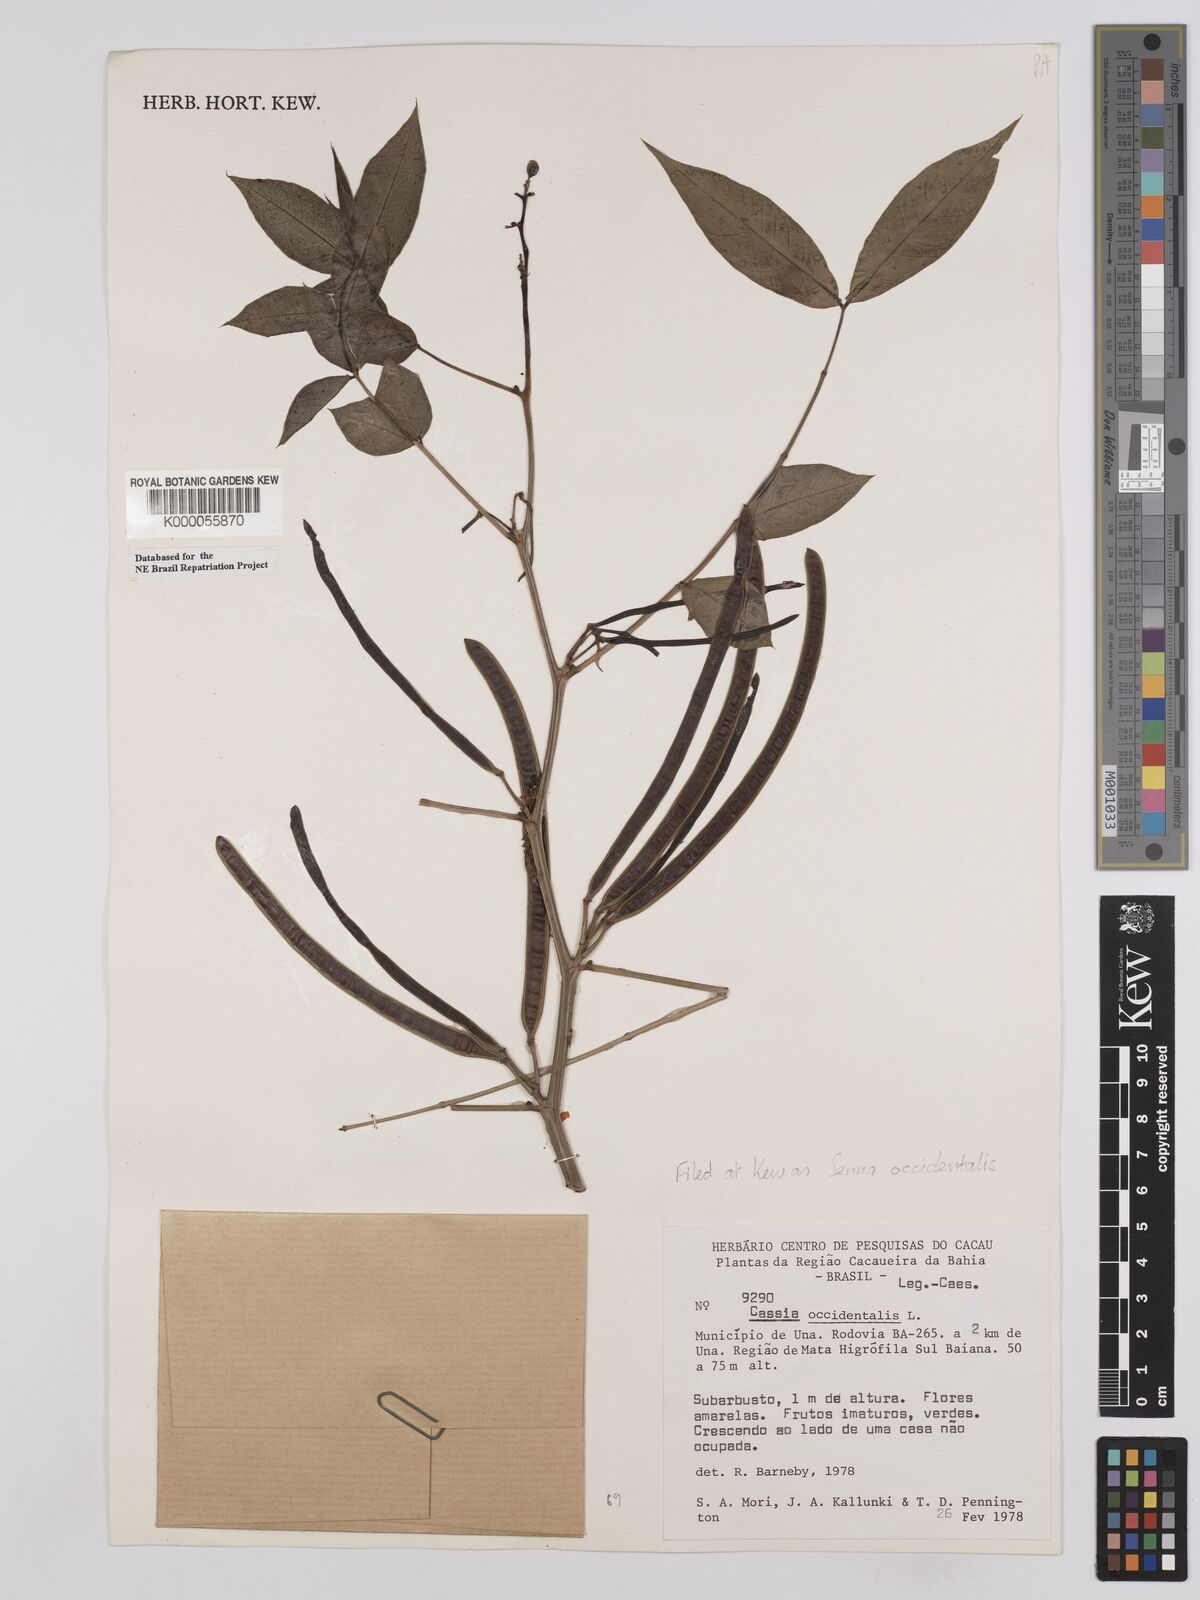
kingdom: Plantae
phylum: Tracheophyta
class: Magnoliopsida
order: Fabales
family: Fabaceae
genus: Senna
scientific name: Senna occidentalis
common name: Septicweed
